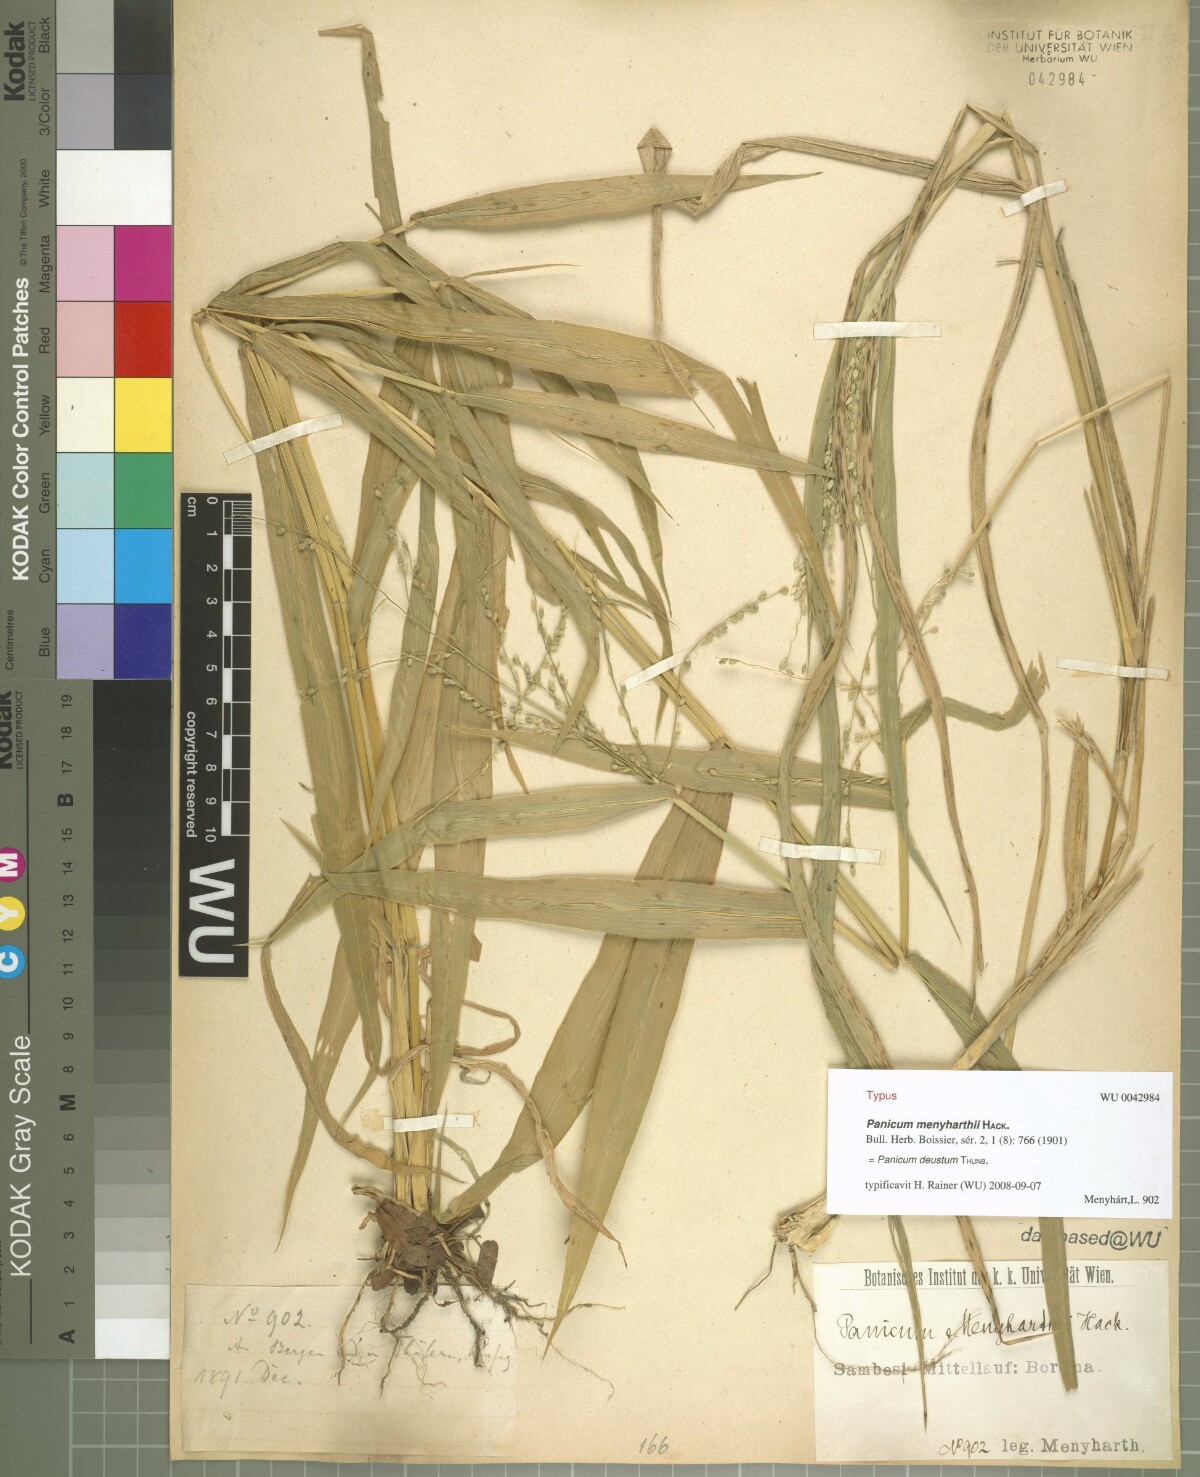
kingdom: Plantae
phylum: Tracheophyta
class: Liliopsida
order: Poales
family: Poaceae
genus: Panicum
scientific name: Panicum deustum
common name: Reed panicum
